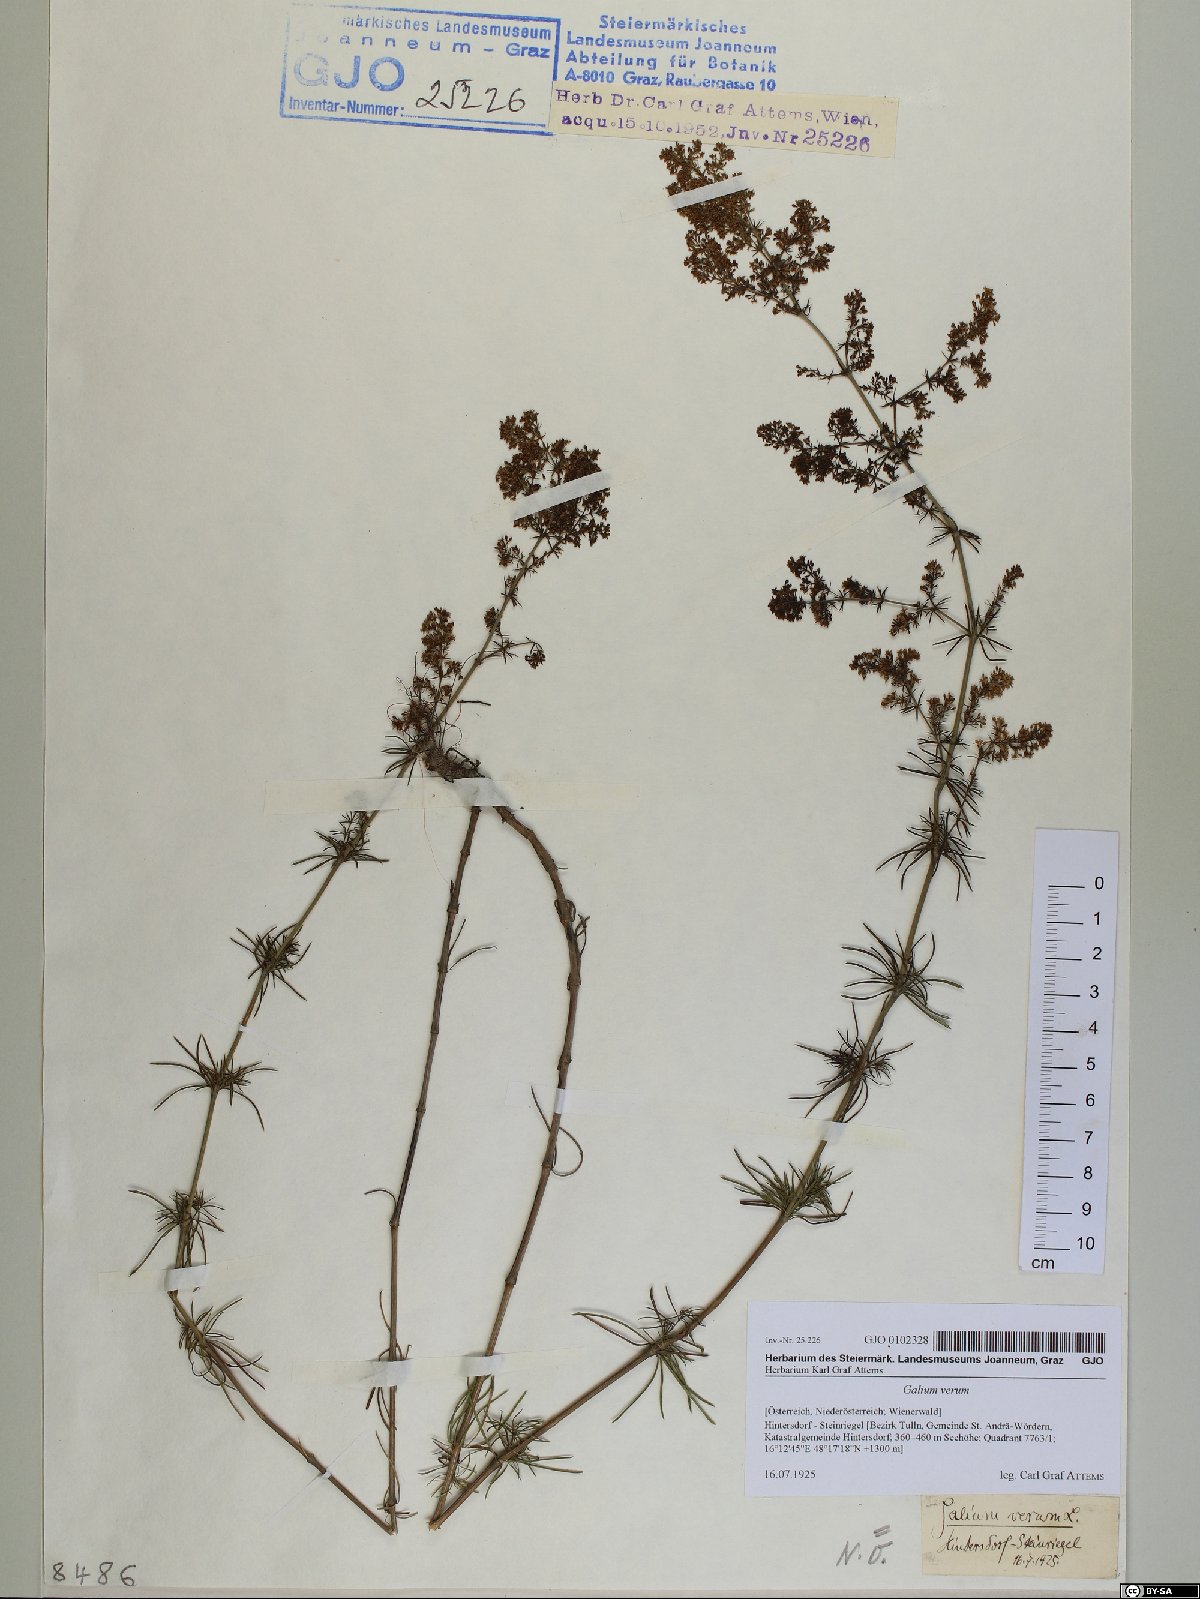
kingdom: Plantae
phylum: Tracheophyta
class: Magnoliopsida
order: Gentianales
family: Rubiaceae
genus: Galium
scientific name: Galium verum
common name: Lady's bedstraw
